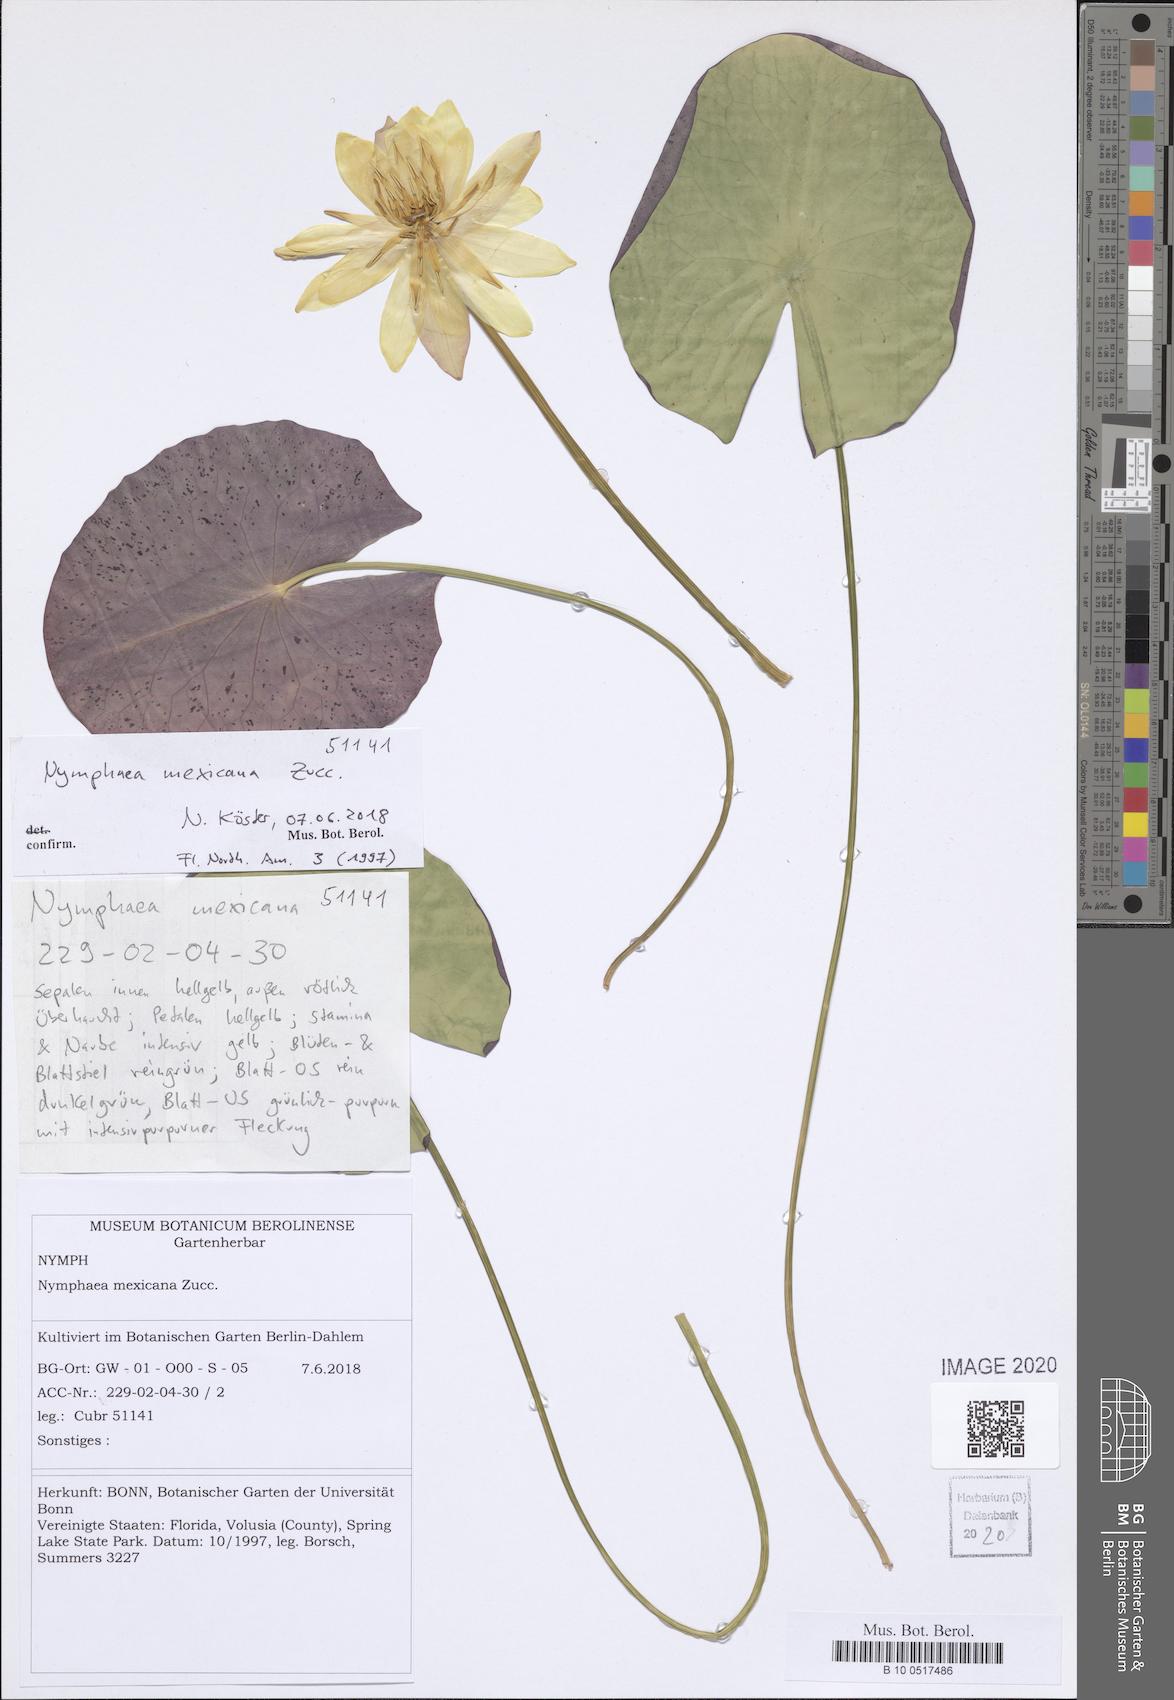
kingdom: Plantae
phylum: Tracheophyta
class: Magnoliopsida
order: Nymphaeales
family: Nymphaeaceae
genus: Nymphaea
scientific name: Nymphaea mexicana
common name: Banana water-lily
